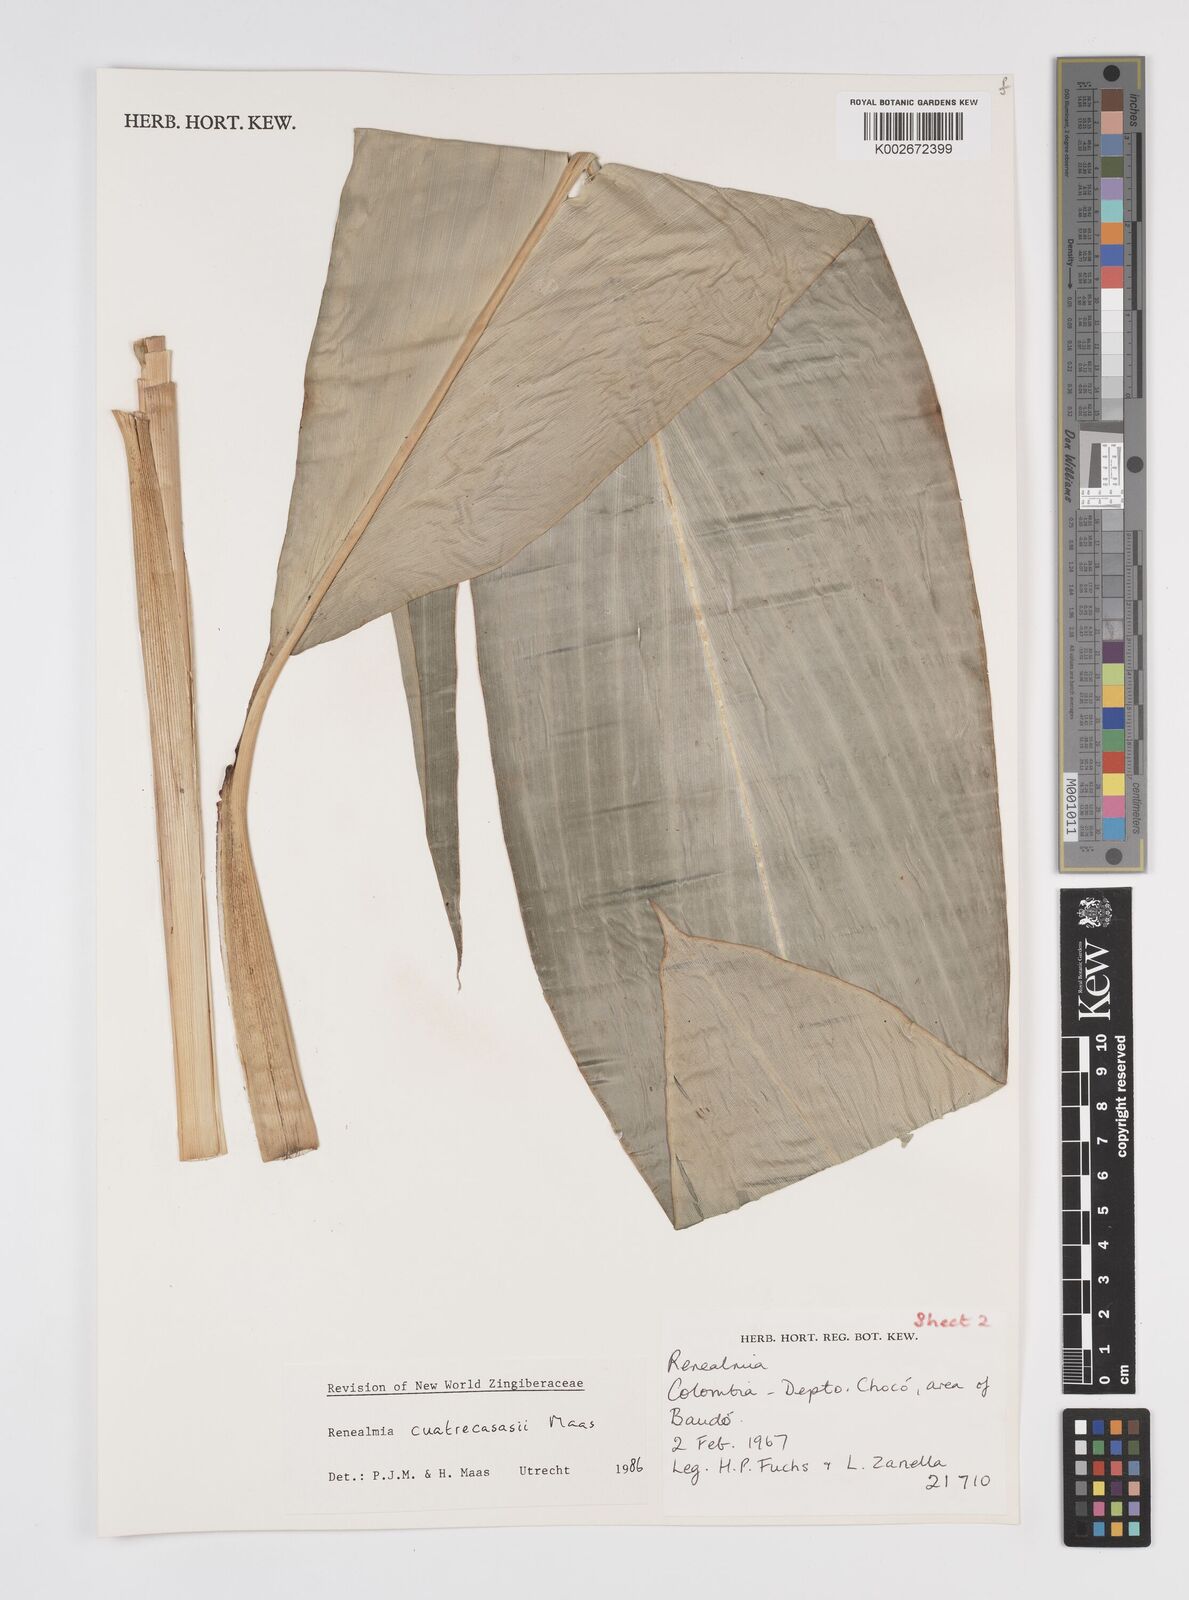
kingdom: Plantae
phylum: Tracheophyta
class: Liliopsida
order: Zingiberales
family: Zingiberaceae
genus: Renealmia
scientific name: Renealmia cuatrecasasii
